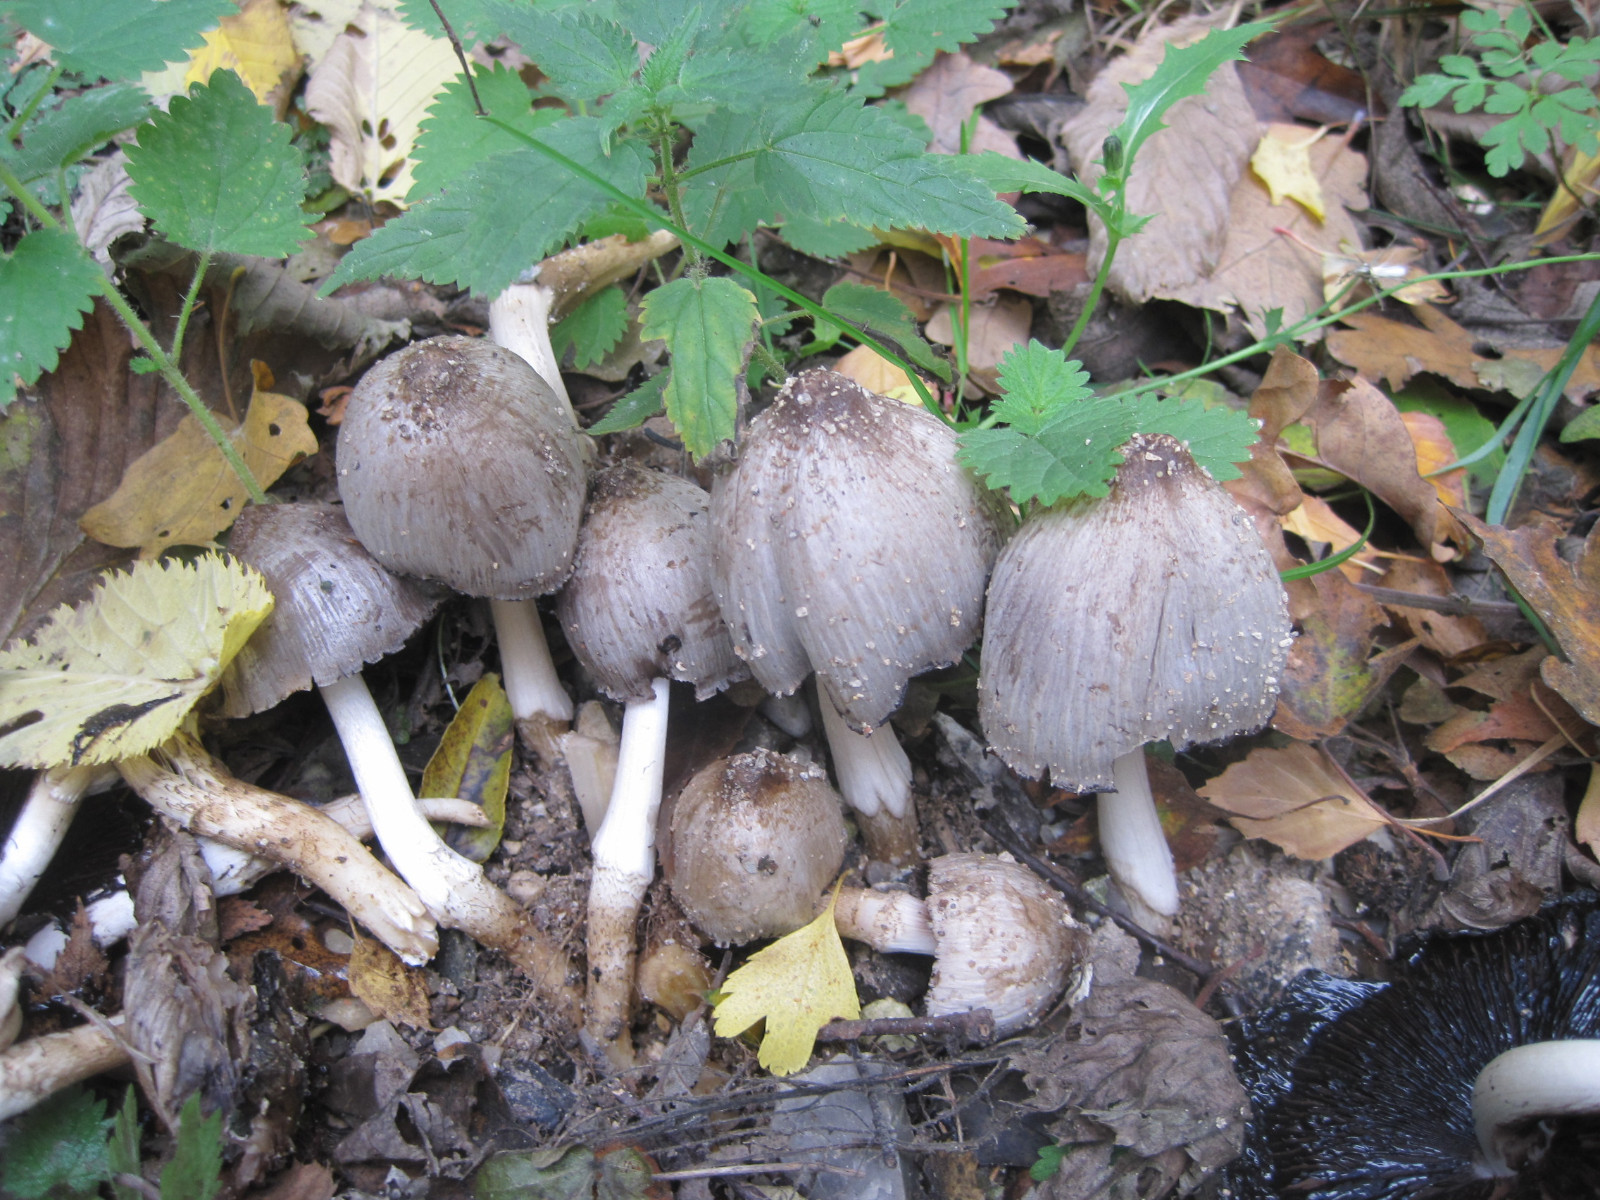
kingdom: Fungi
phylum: Basidiomycota
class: Agaricomycetes
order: Agaricales
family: Psathyrellaceae
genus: Coprinopsis
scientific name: Coprinopsis atramentaria
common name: almindelig blækhat
